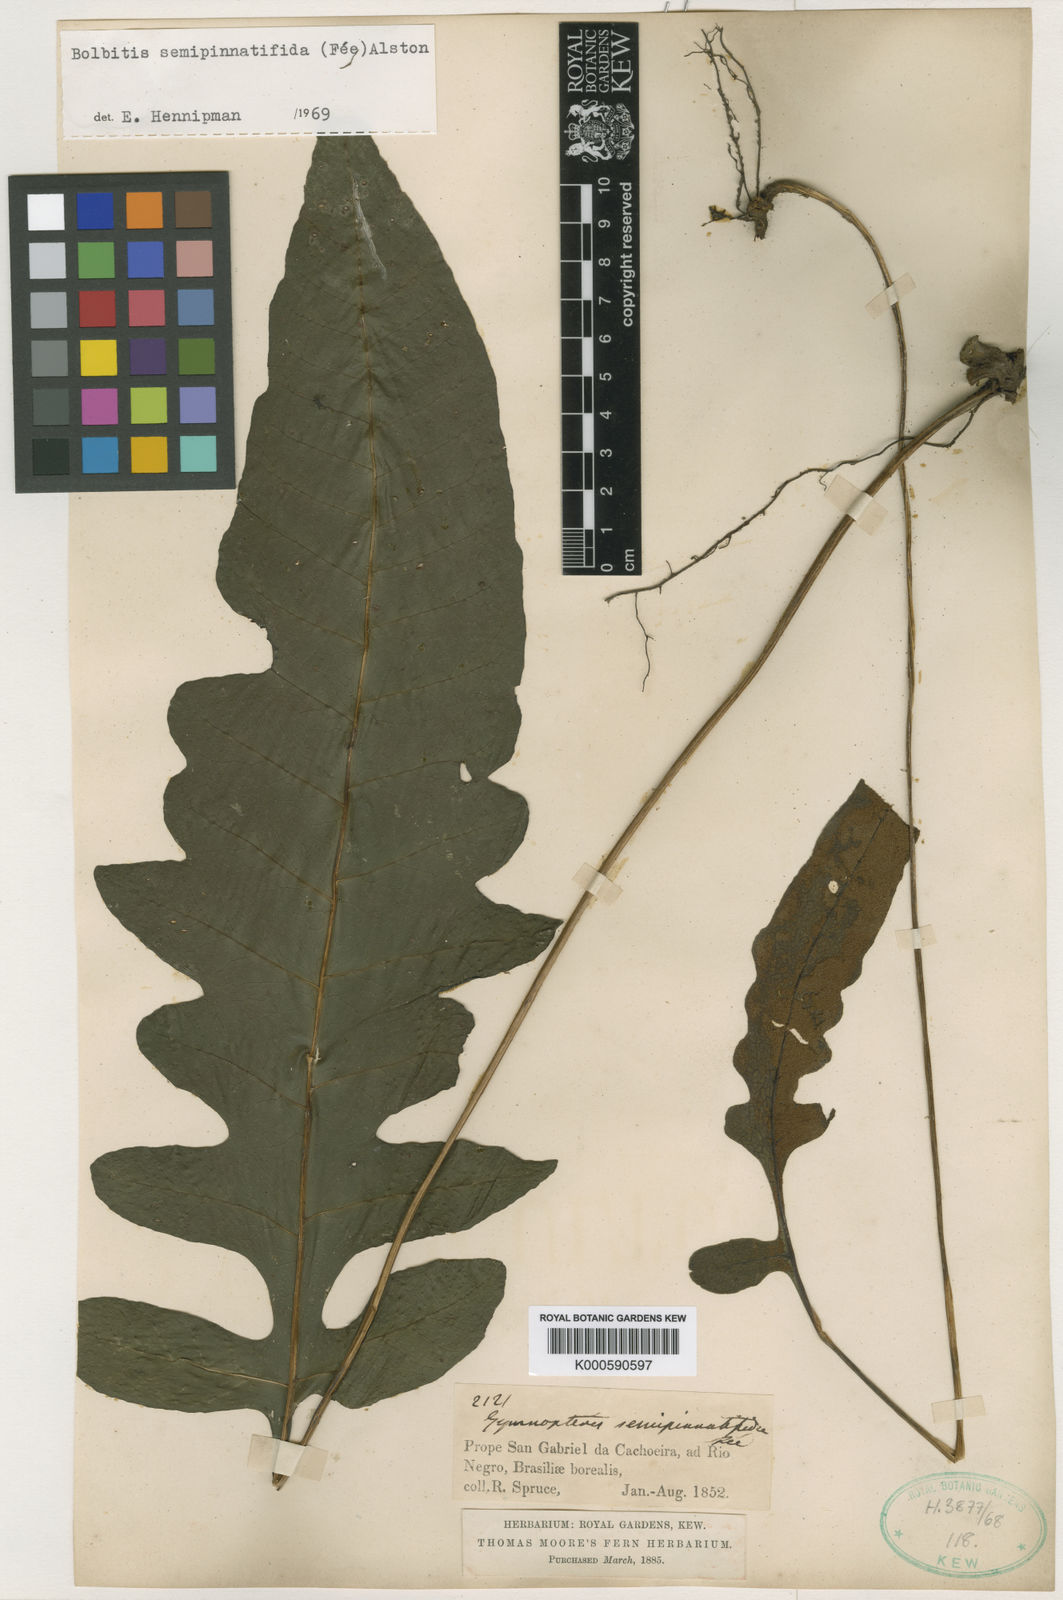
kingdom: Plantae
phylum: Tracheophyta
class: Polypodiopsida
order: Polypodiales
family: Dryopteridaceae
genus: Bolbitis
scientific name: Bolbitis
